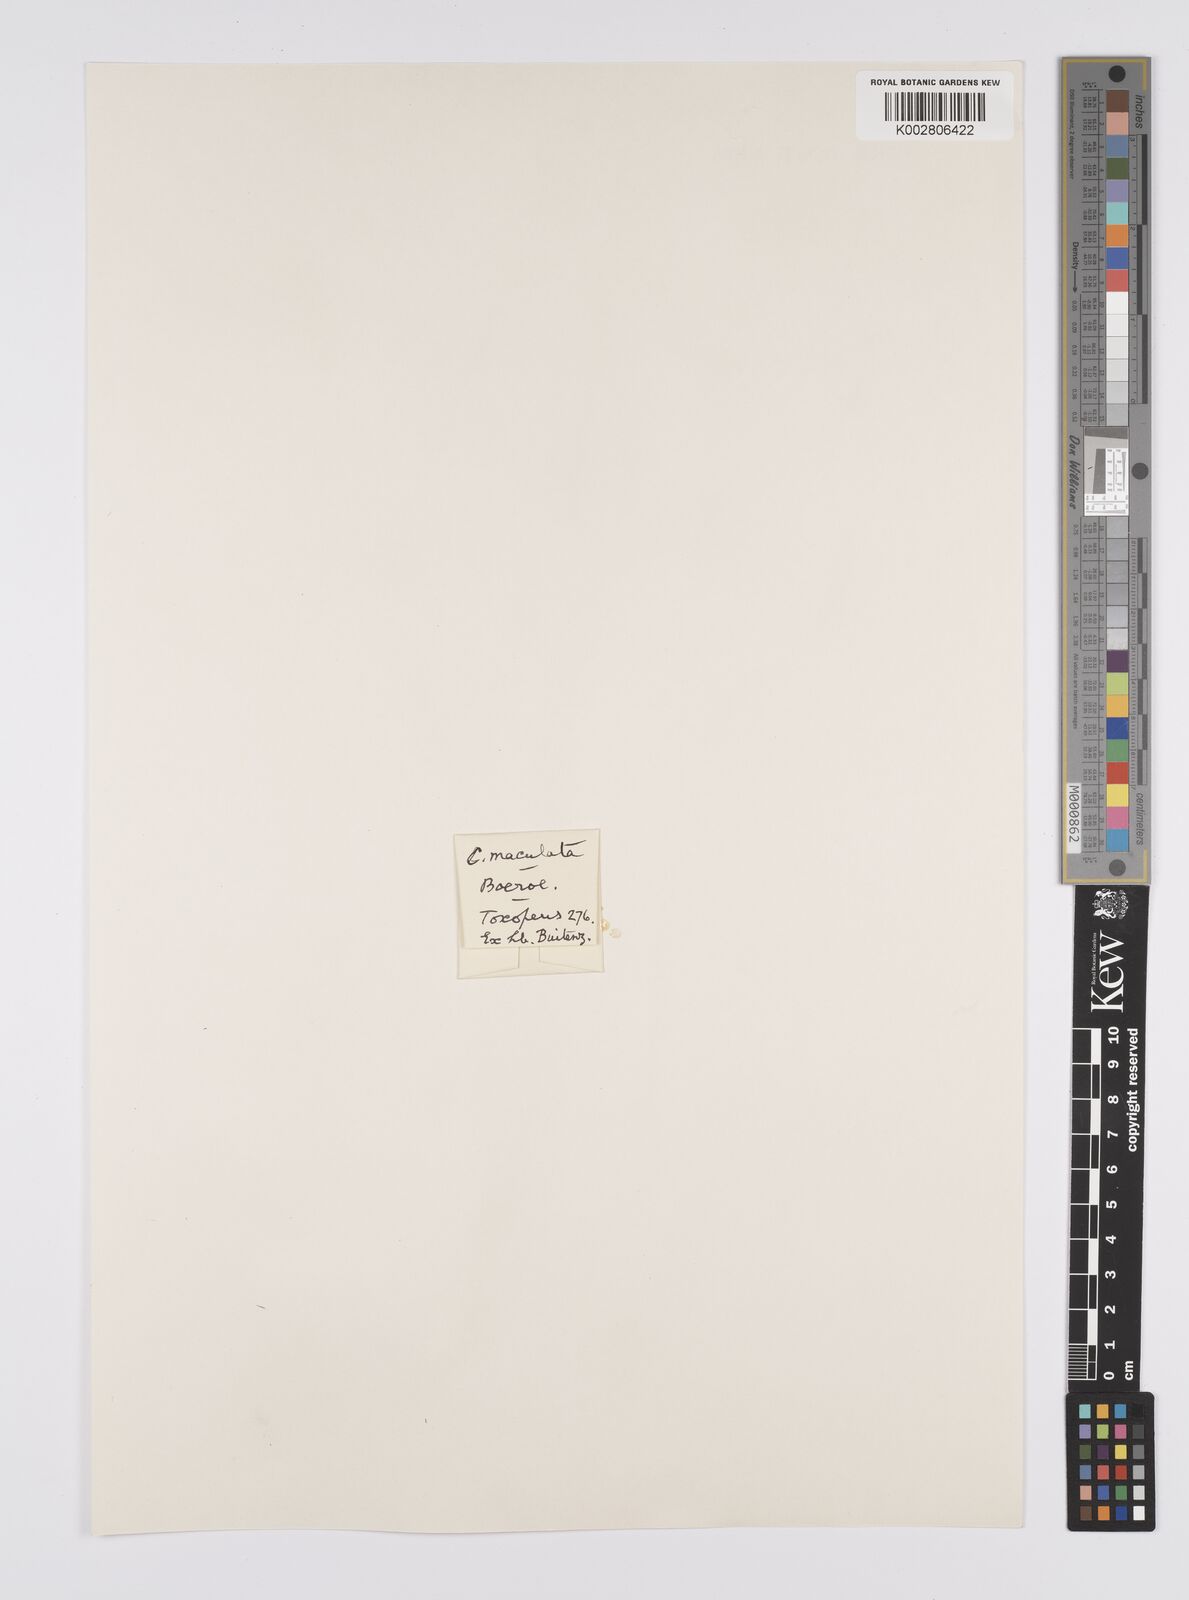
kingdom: Plantae
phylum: Tracheophyta
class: Liliopsida
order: Poales
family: Cyperaceae
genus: Carex
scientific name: Carex maculata
